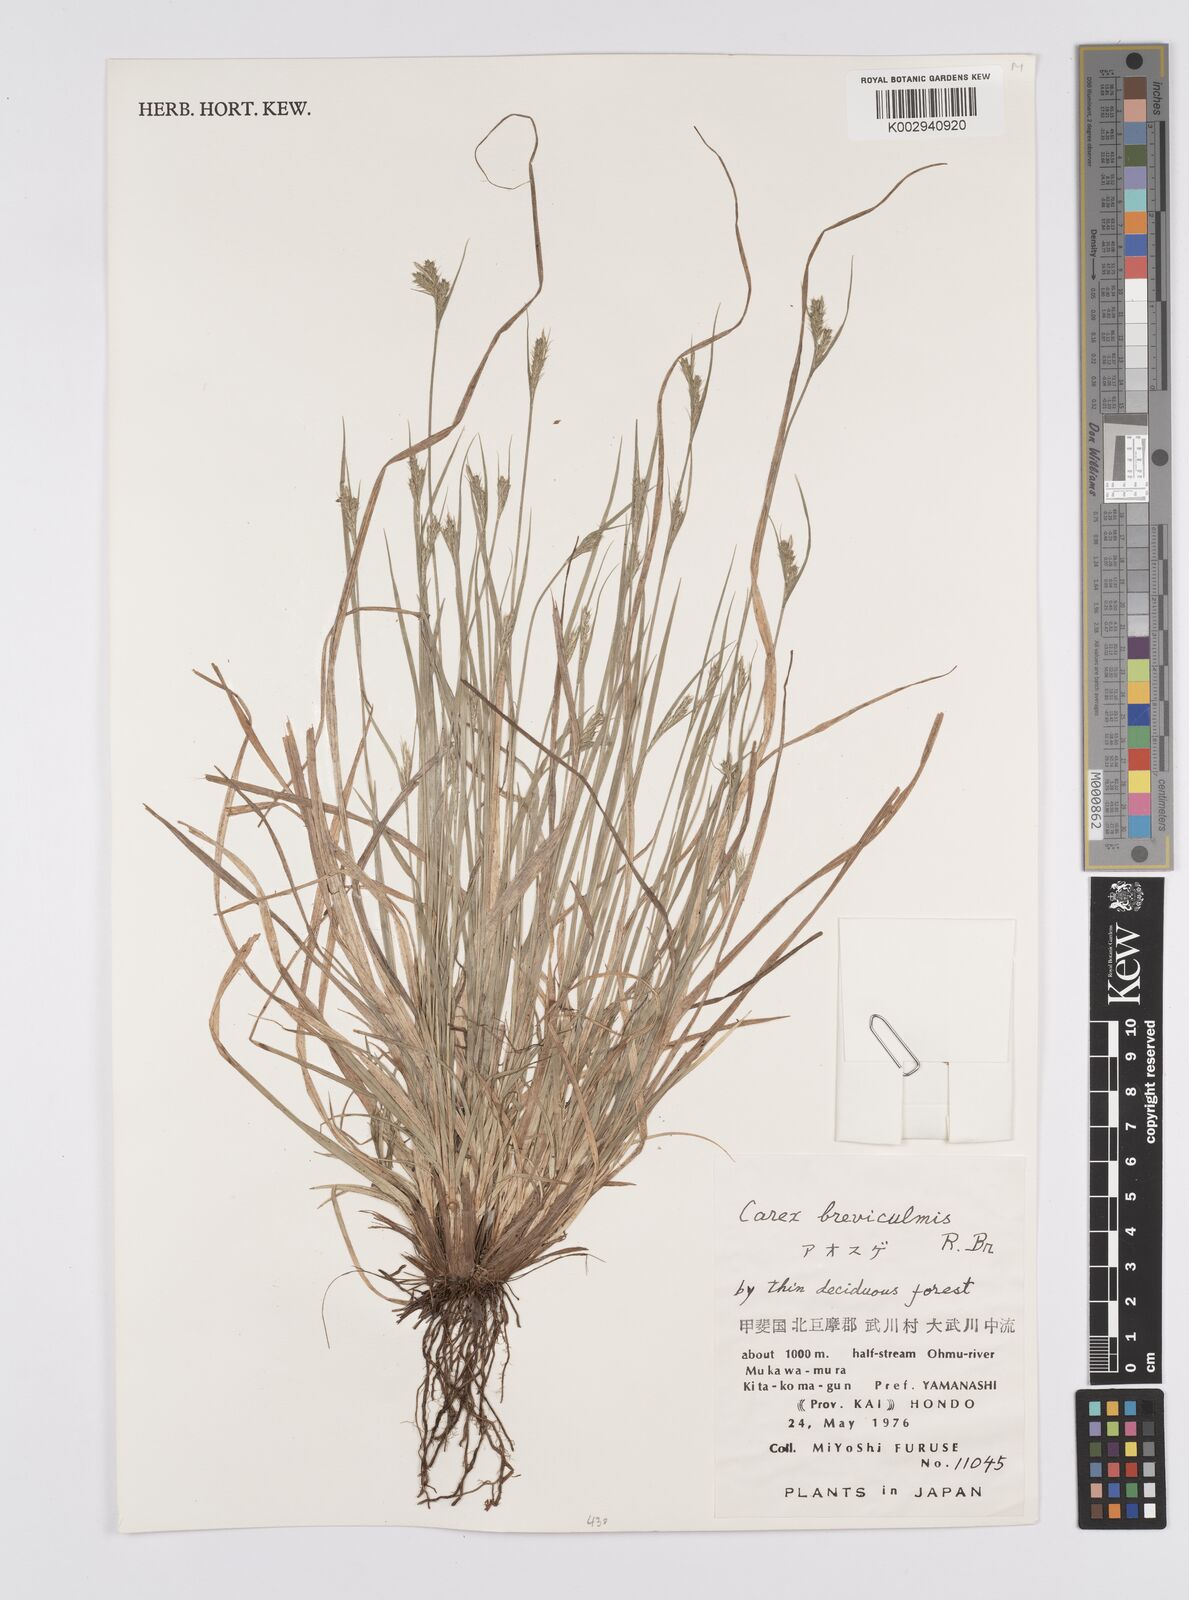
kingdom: Plantae
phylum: Tracheophyta
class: Liliopsida
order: Poales
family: Cyperaceae
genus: Carex
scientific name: Carex breviculmis
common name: Asian shortstem sedge
